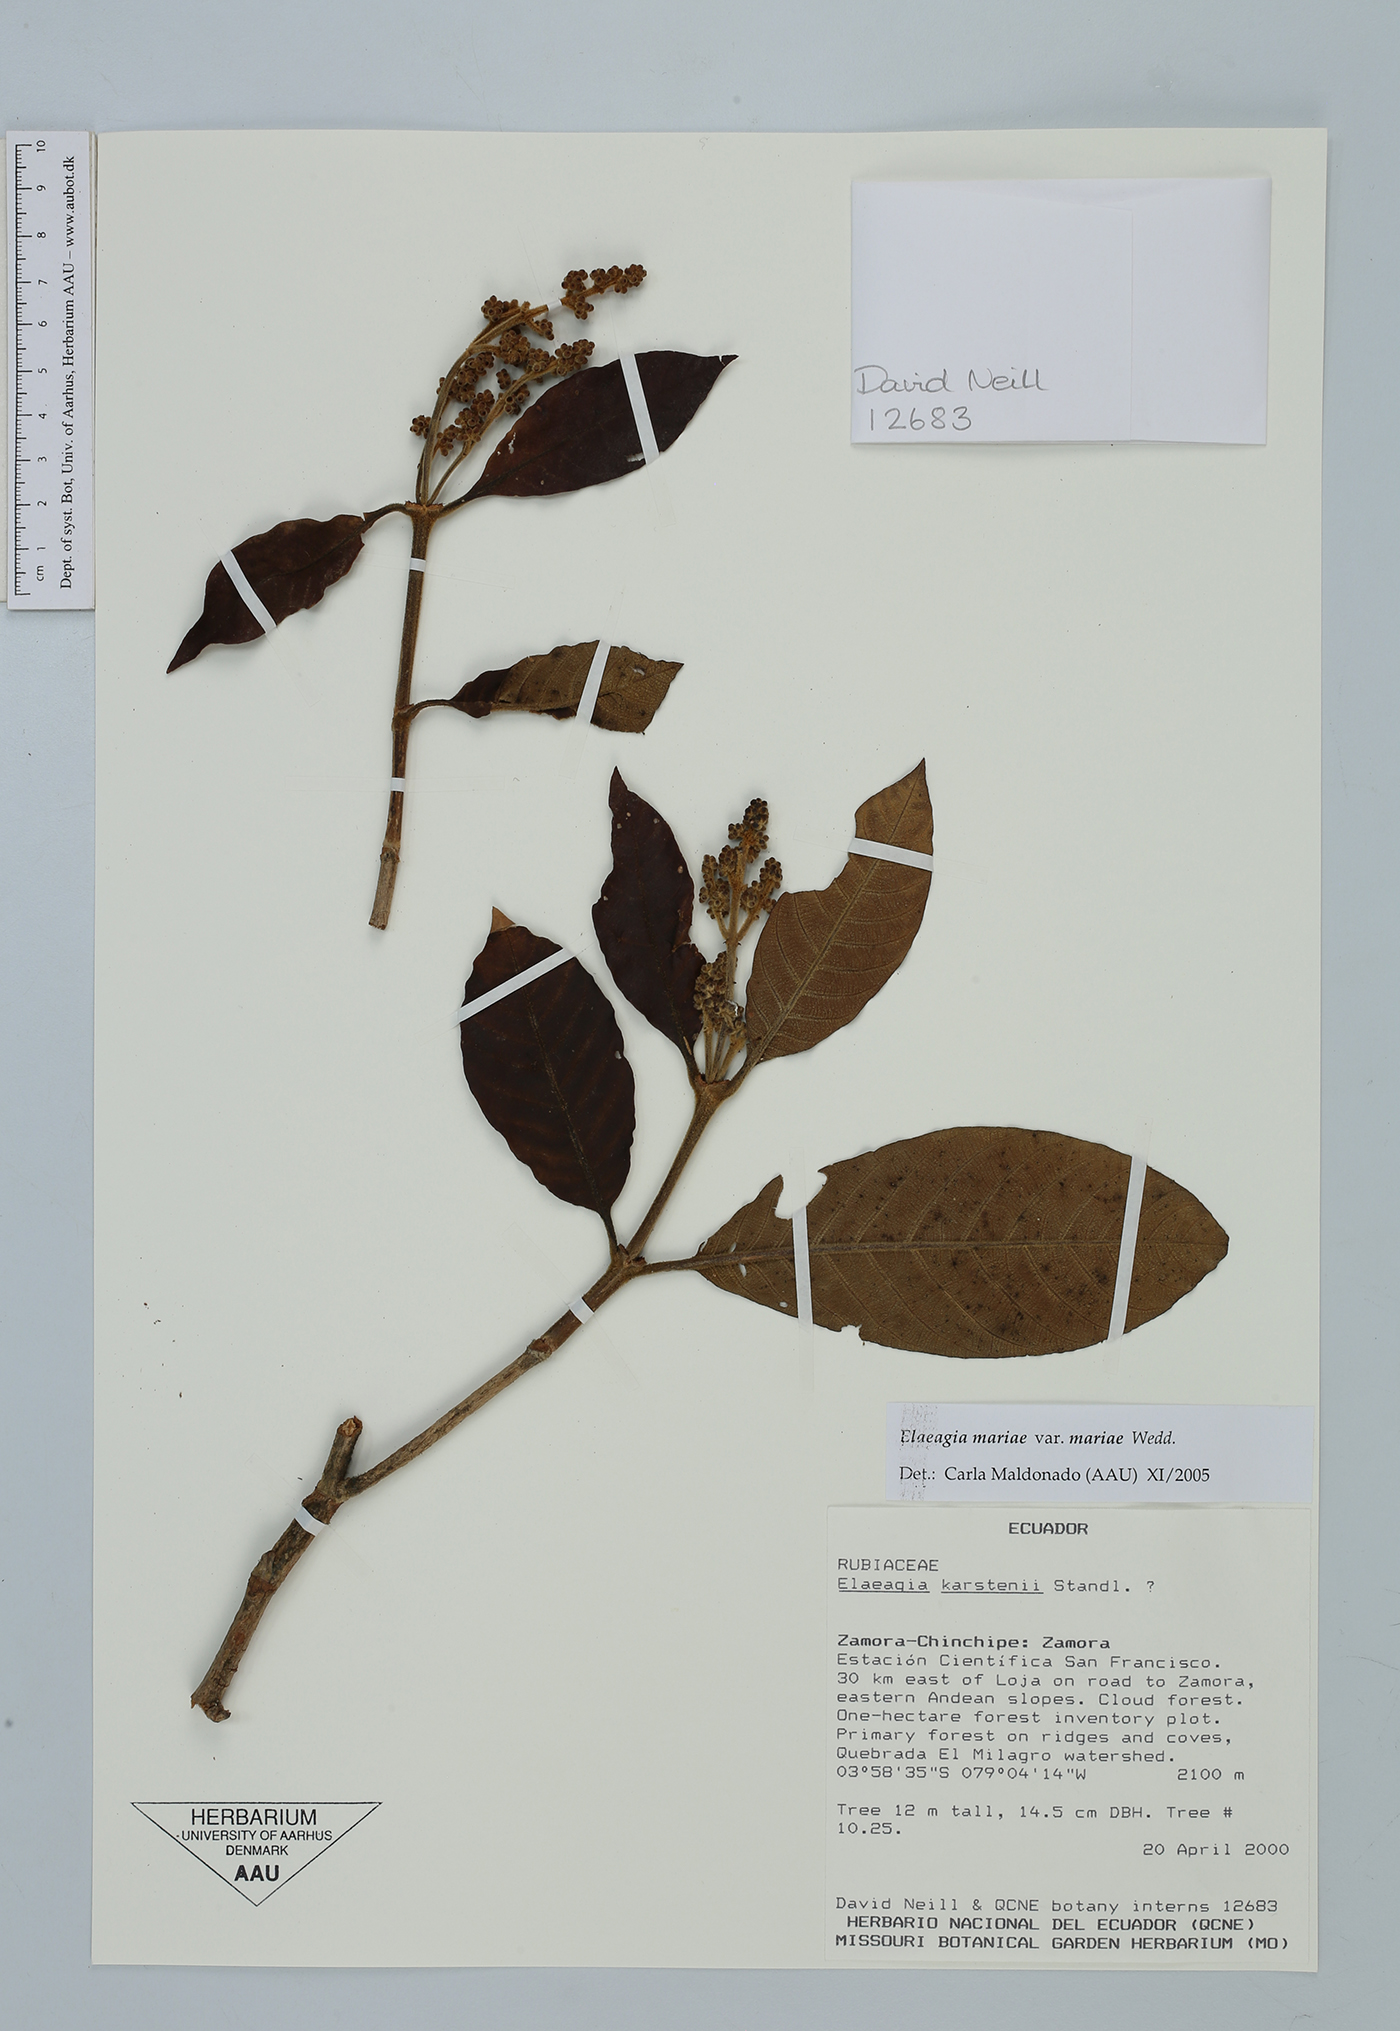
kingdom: Plantae
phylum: Tracheophyta
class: Magnoliopsida
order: Gentianales
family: Rubiaceae
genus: Elaeagia
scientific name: Elaeagia mariae
